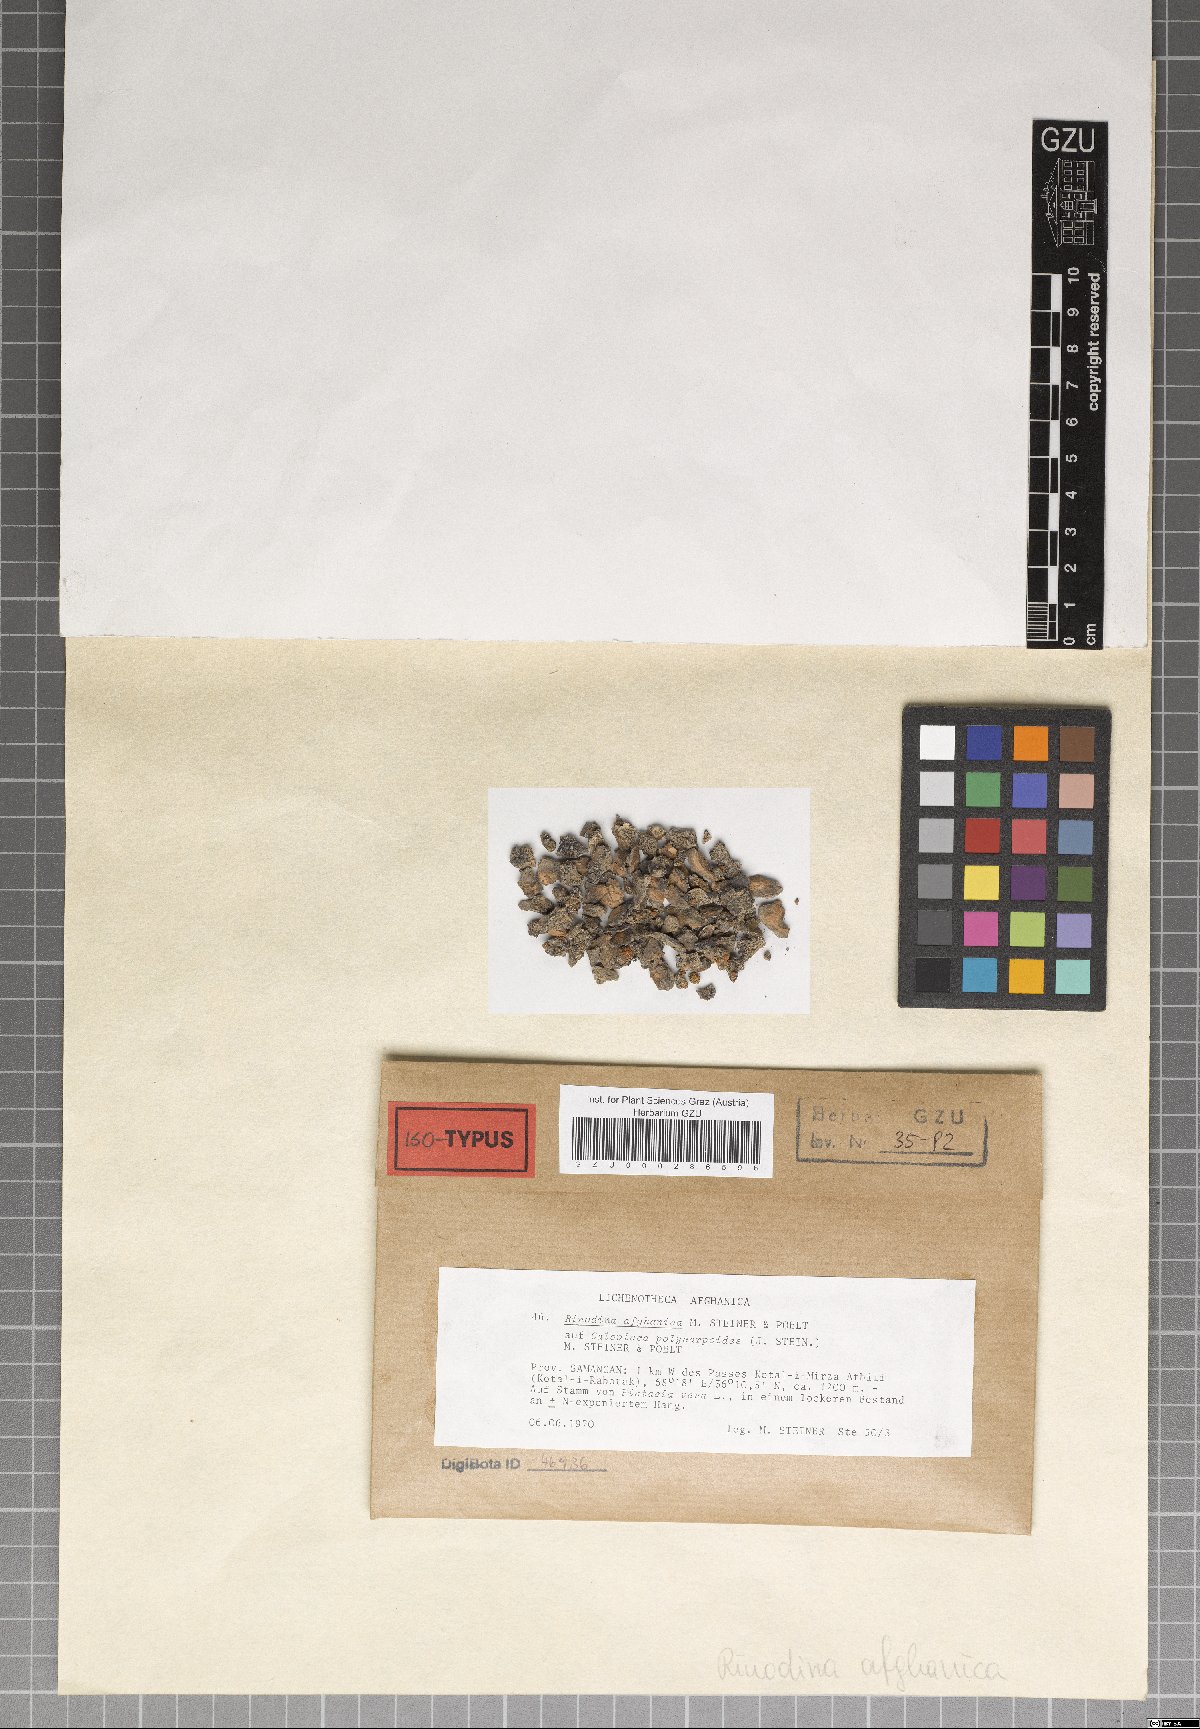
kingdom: Fungi
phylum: Ascomycota
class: Lecanoromycetes
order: Caliciales
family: Physciaceae
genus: Oxnerella
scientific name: Oxnerella afghanica
